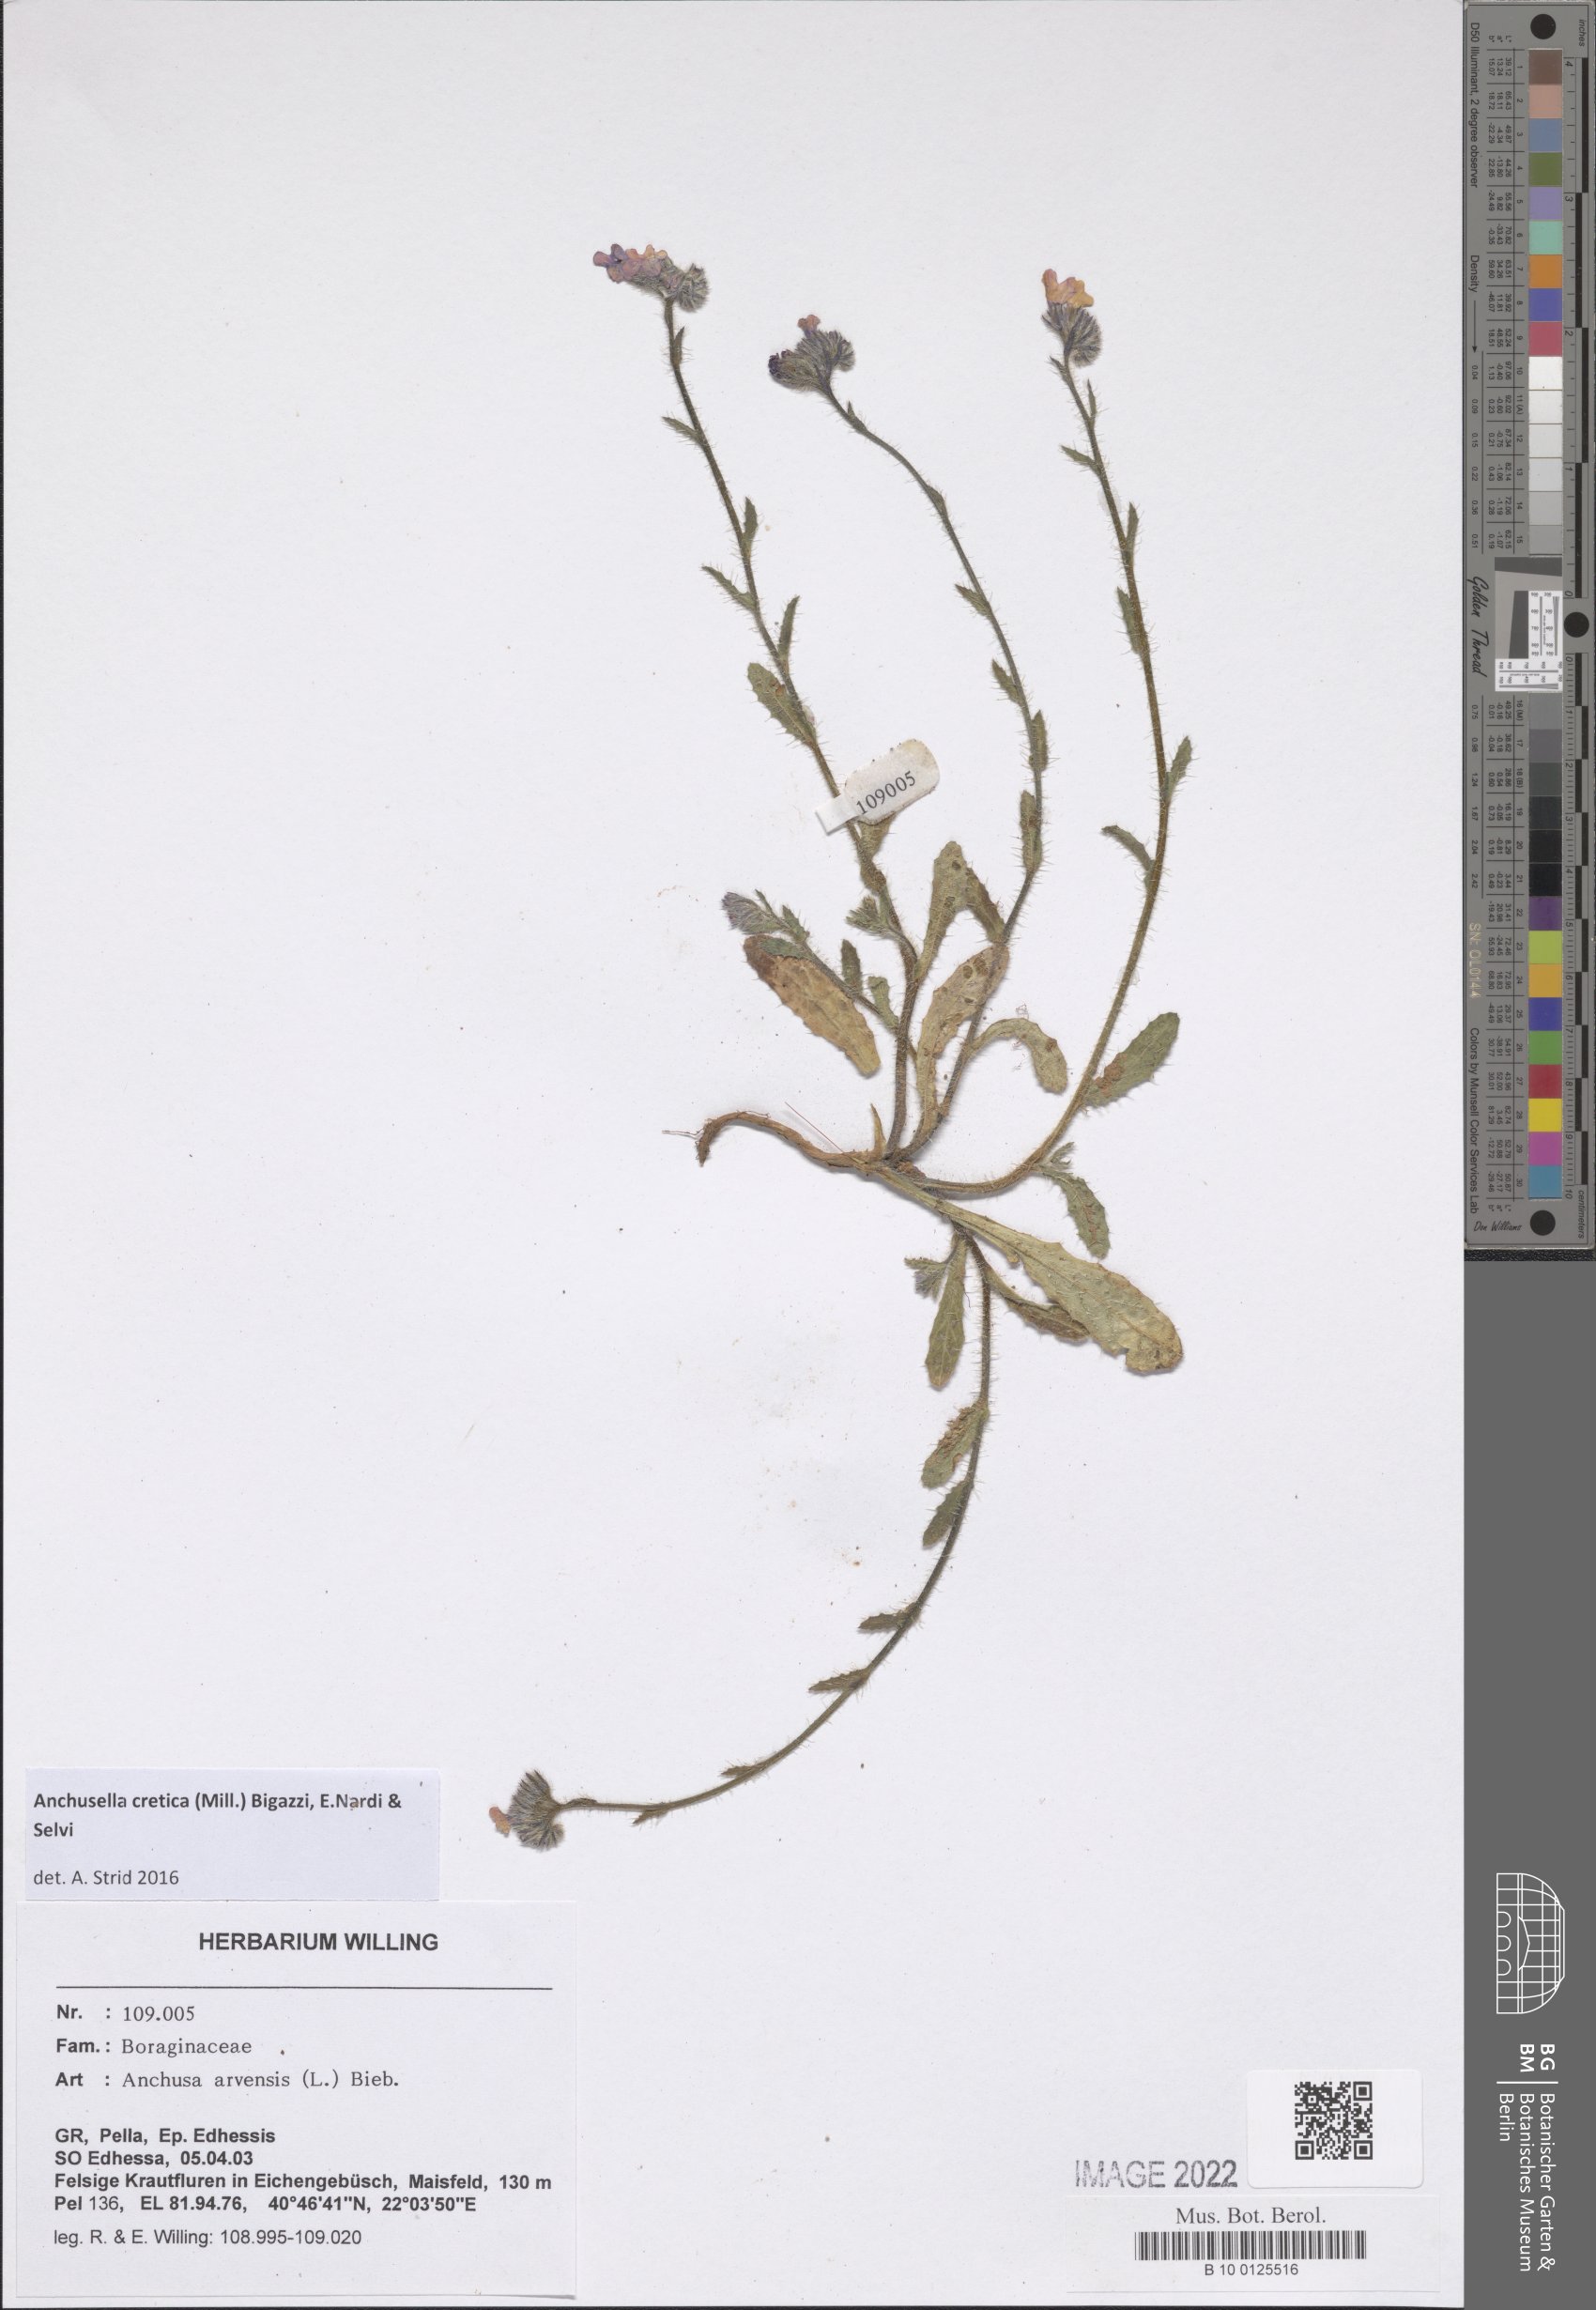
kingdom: Plantae
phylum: Tracheophyta
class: Magnoliopsida
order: Boraginales
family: Boraginaceae
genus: Anchusella
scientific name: Anchusella cretica
